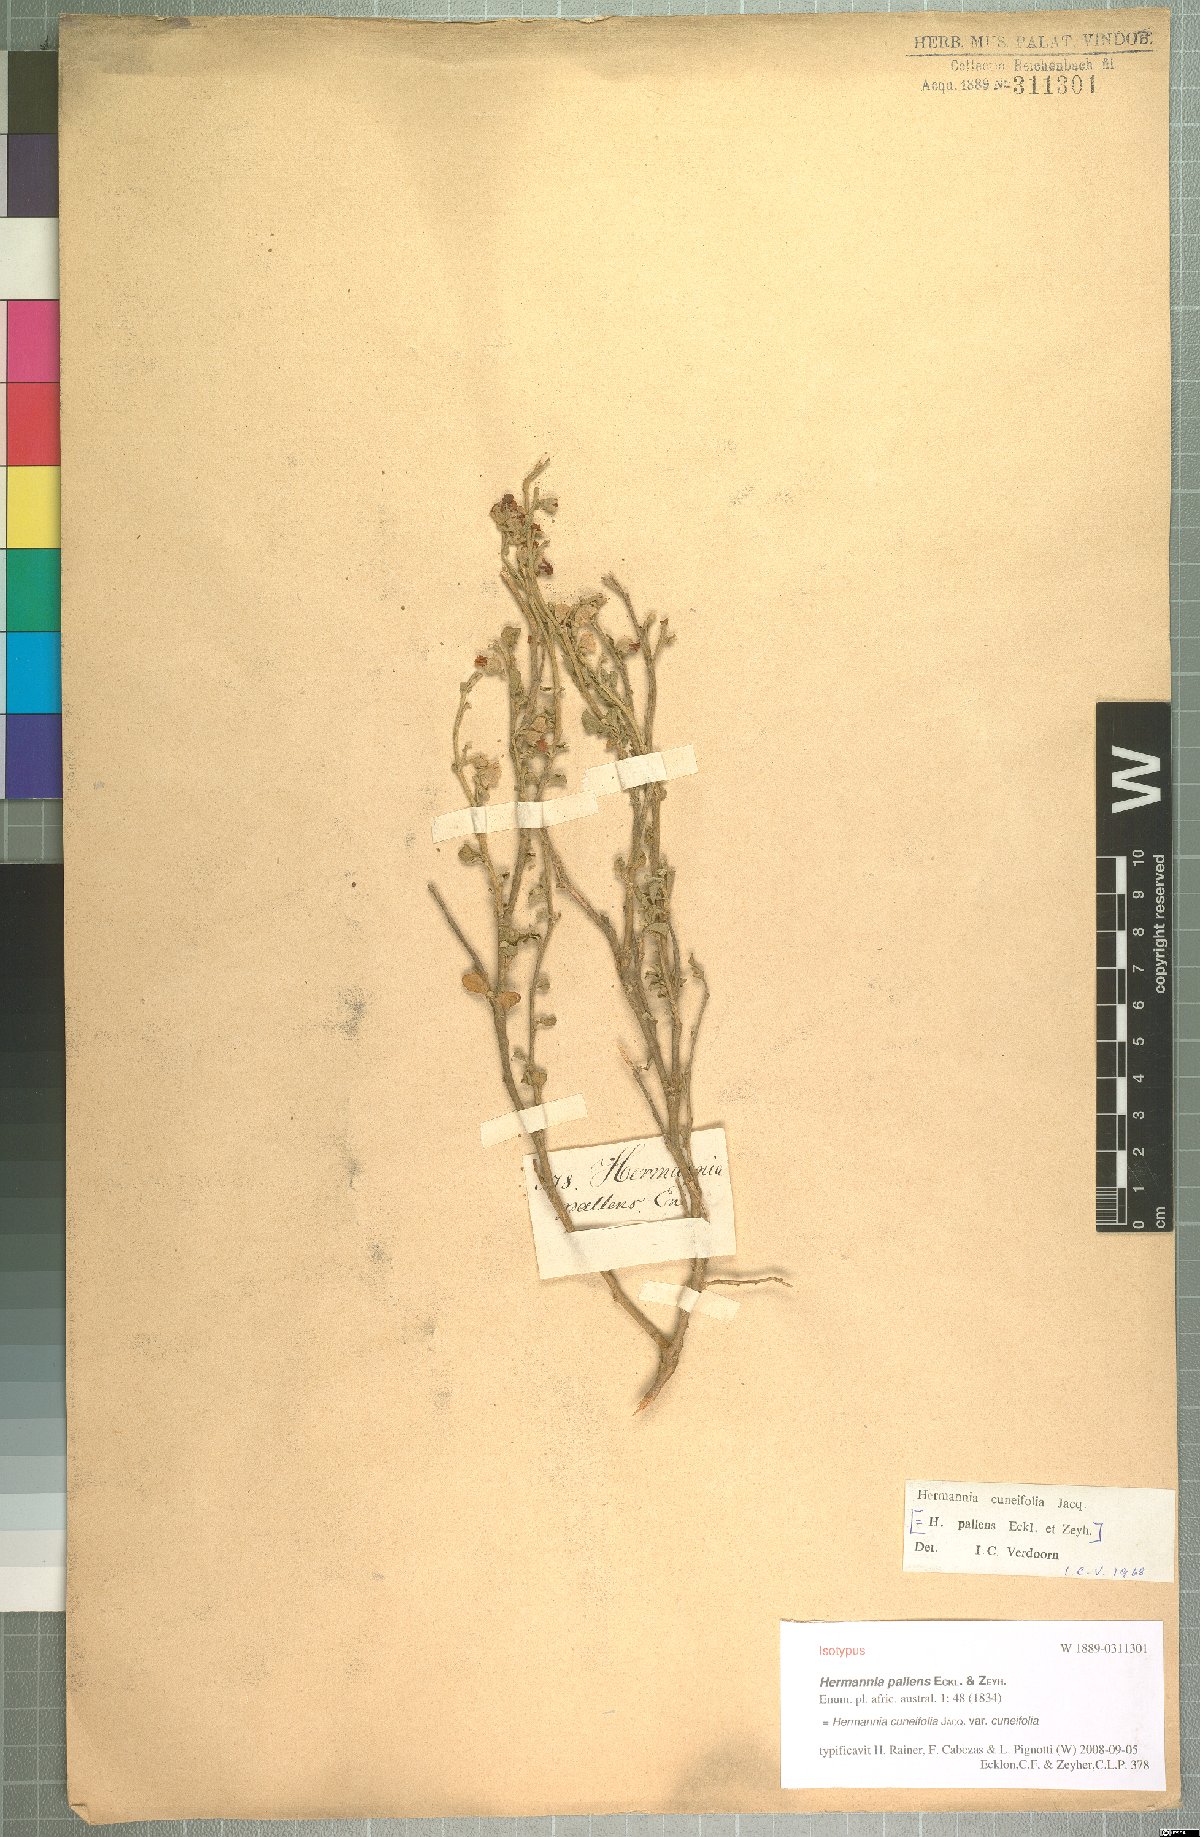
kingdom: Plantae
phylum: Tracheophyta
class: Magnoliopsida
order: Malvales
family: Malvaceae
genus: Hermannia
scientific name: Hermannia cuneifolia
